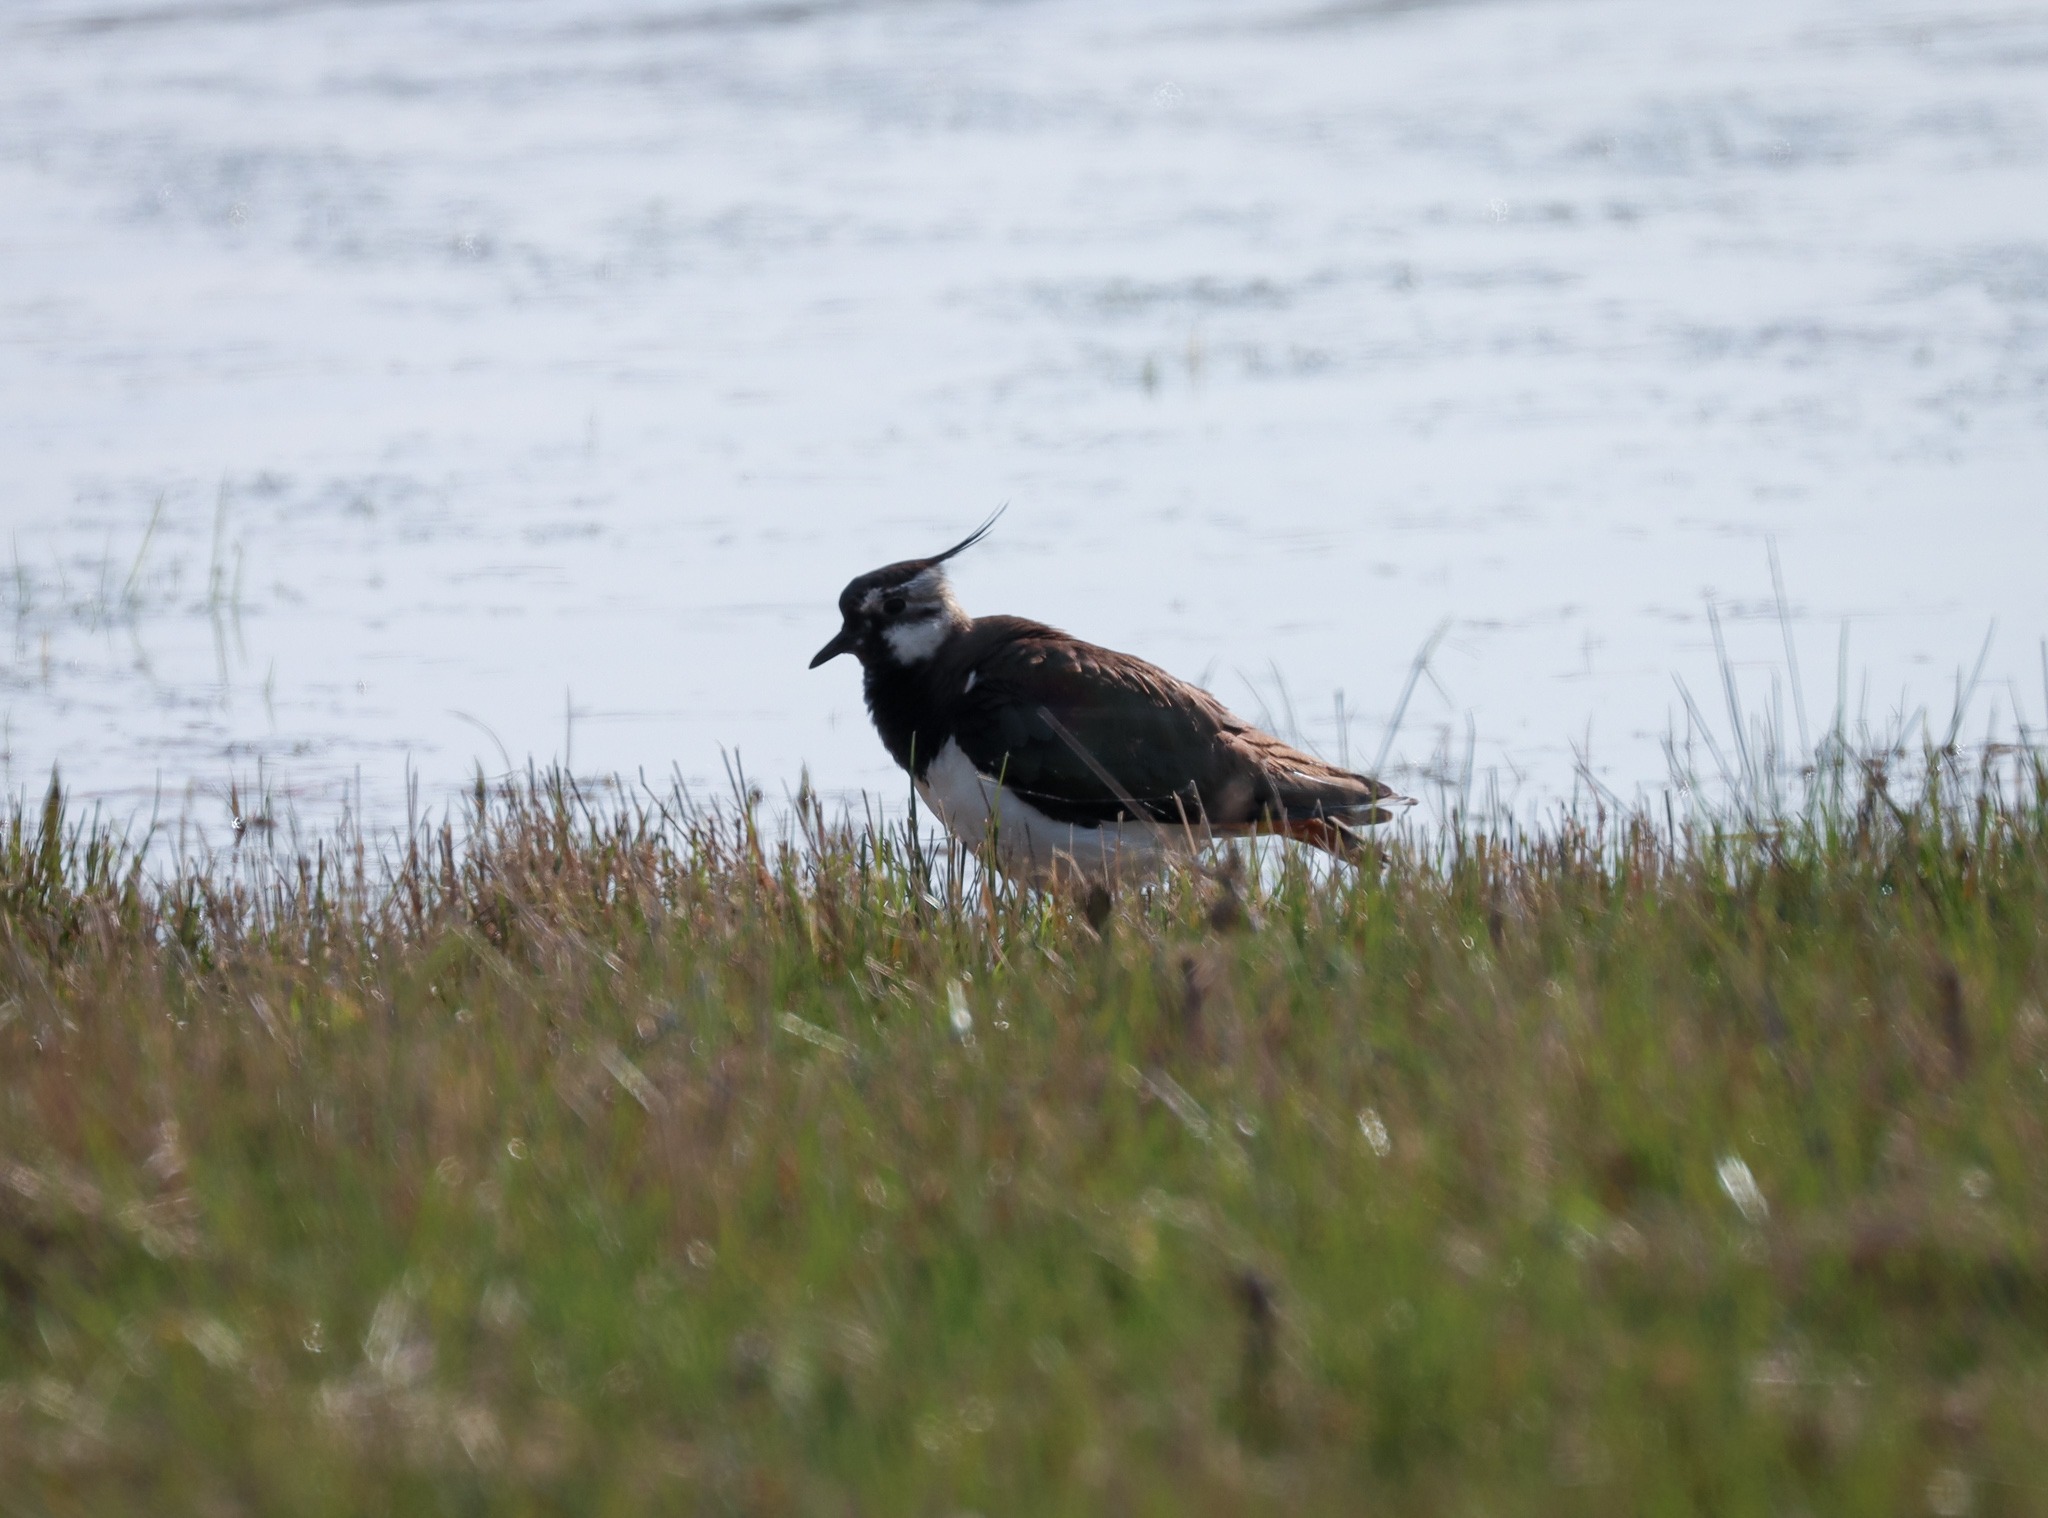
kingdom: Animalia
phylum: Chordata
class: Aves
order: Charadriiformes
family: Charadriidae
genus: Vanellus
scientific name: Vanellus vanellus
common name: Vibe
